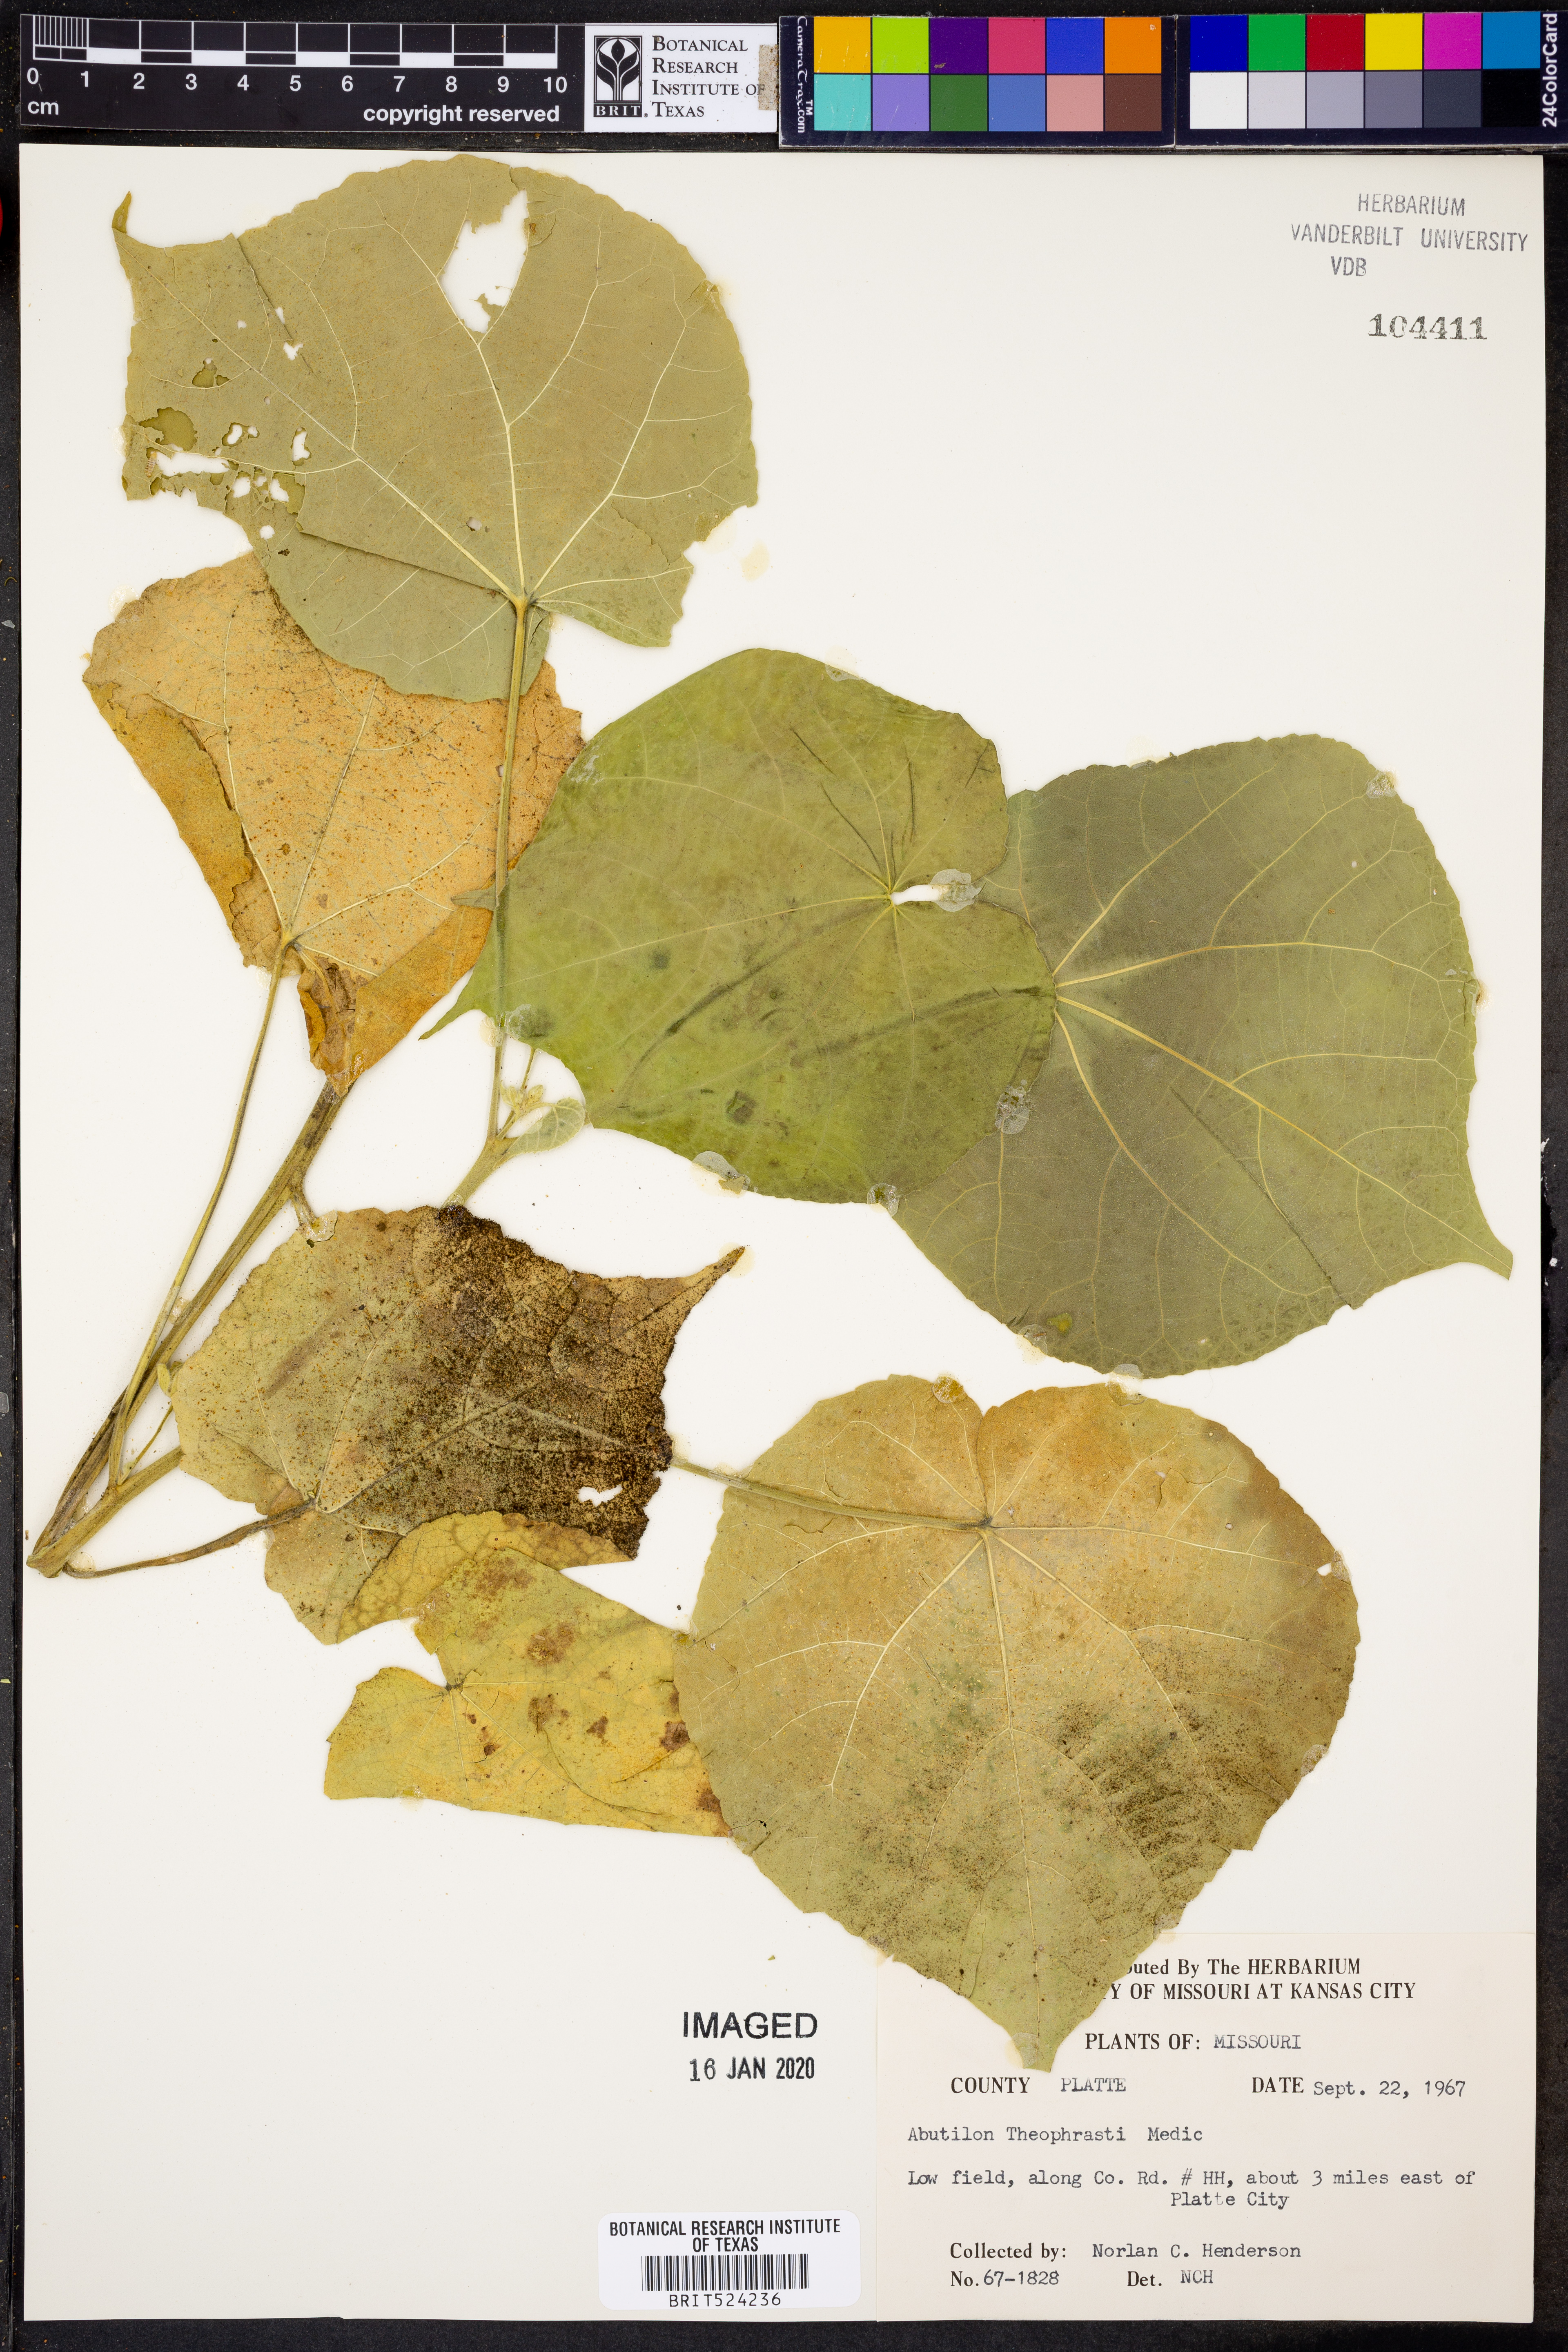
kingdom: Plantae
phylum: Tracheophyta
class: Magnoliopsida
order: Malvales
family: Malvaceae
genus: Abutilon
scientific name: Abutilon theophrasti
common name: Velvetleaf
